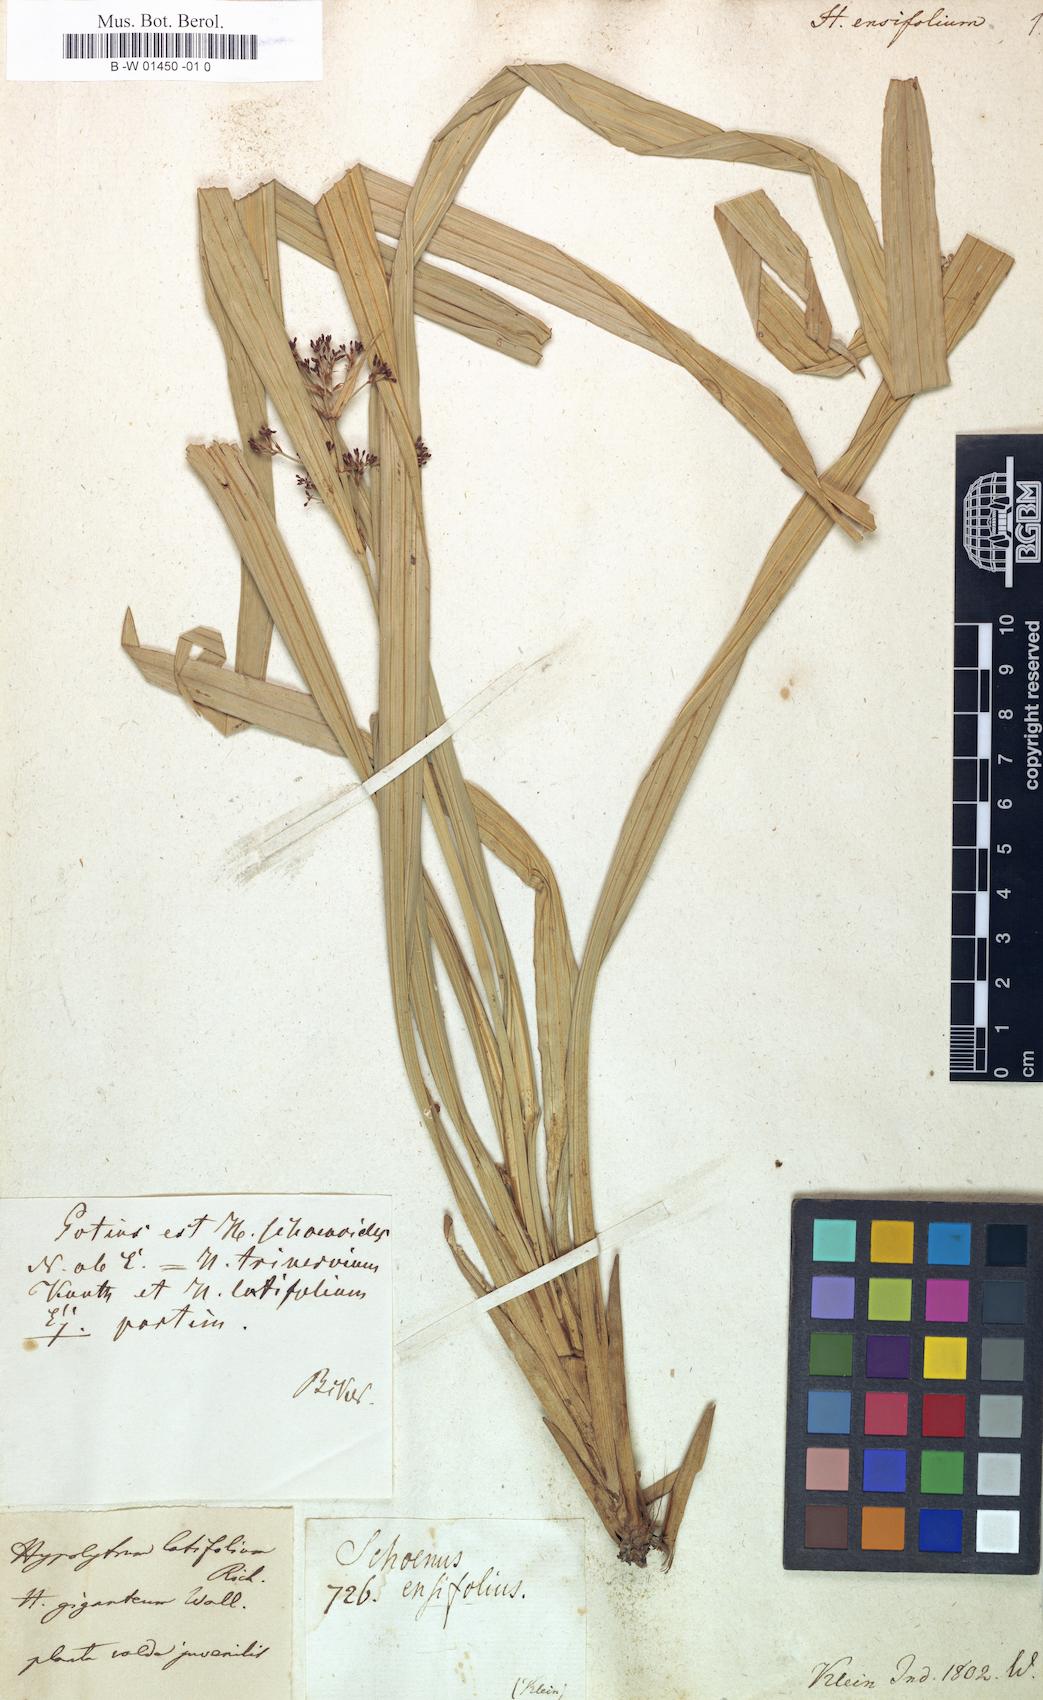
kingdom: Plantae
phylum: Tracheophyta
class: Liliopsida
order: Poales
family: Cyperaceae
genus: Cyperus
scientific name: Cyperus
